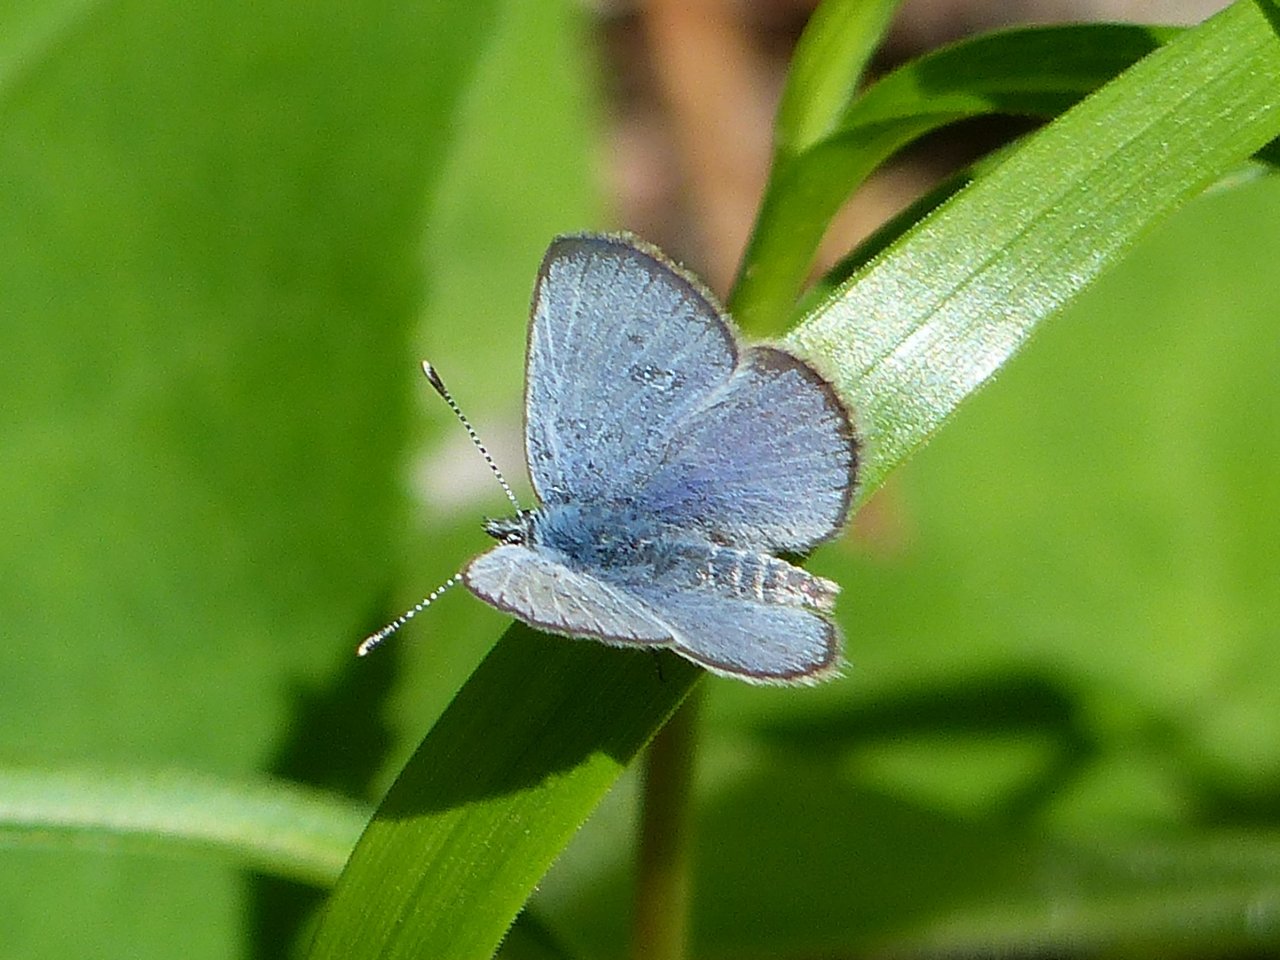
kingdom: Animalia
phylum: Arthropoda
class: Insecta
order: Lepidoptera
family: Lycaenidae
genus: Glaucopsyche
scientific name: Glaucopsyche lygdamus
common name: Silvery Blue
